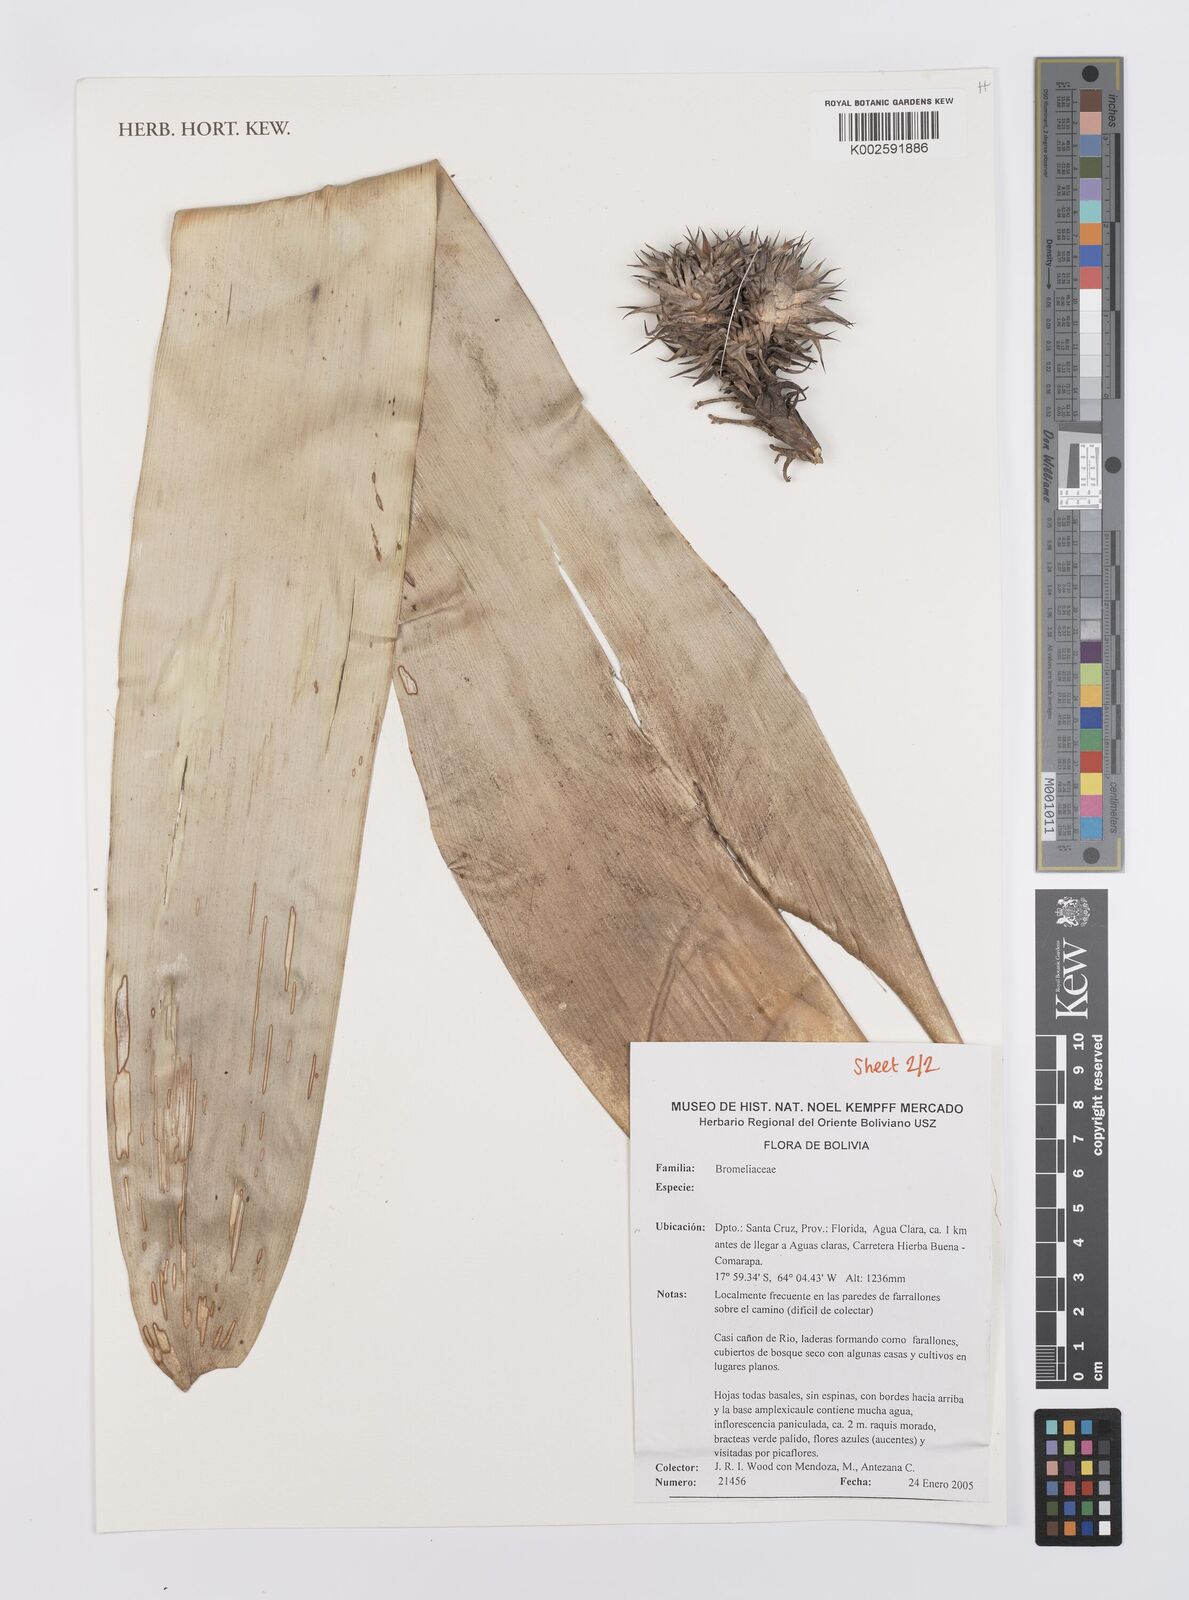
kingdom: Plantae
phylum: Tracheophyta
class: Liliopsida
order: Poales
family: Bromeliaceae
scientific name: Bromeliaceae
